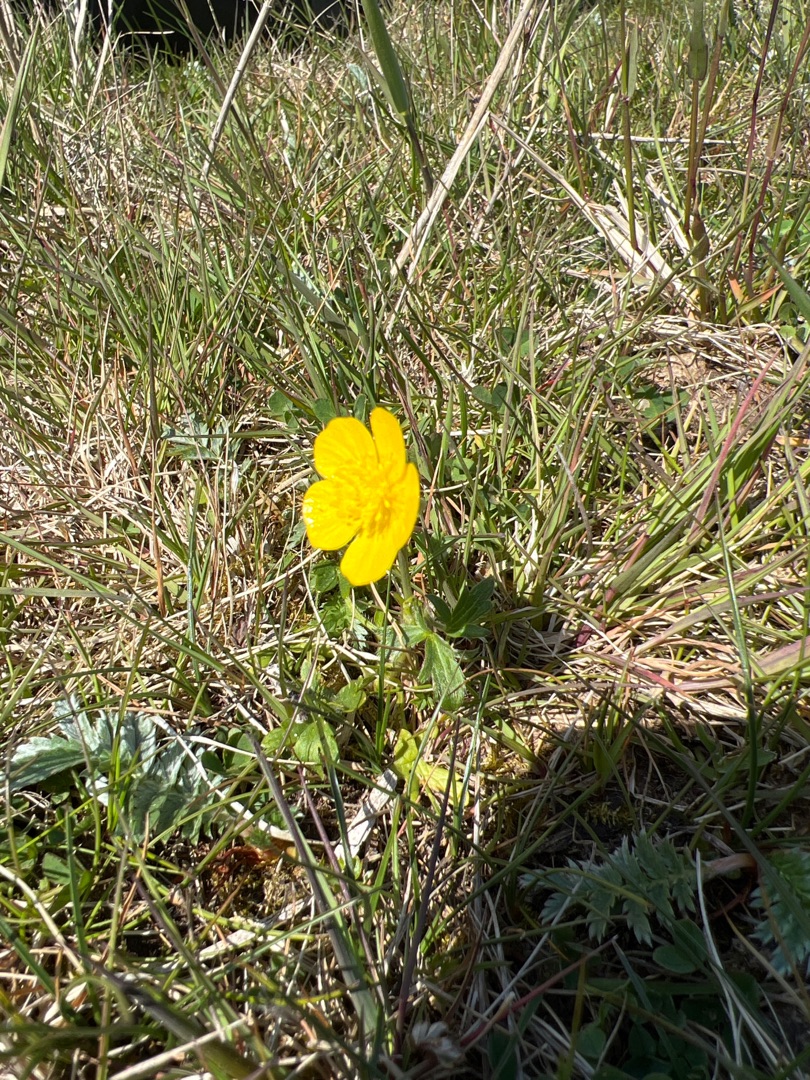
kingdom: Plantae
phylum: Tracheophyta
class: Magnoliopsida
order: Ranunculales
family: Ranunculaceae
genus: Ranunculus
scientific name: Ranunculus acris
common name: Bidende ranunkel
